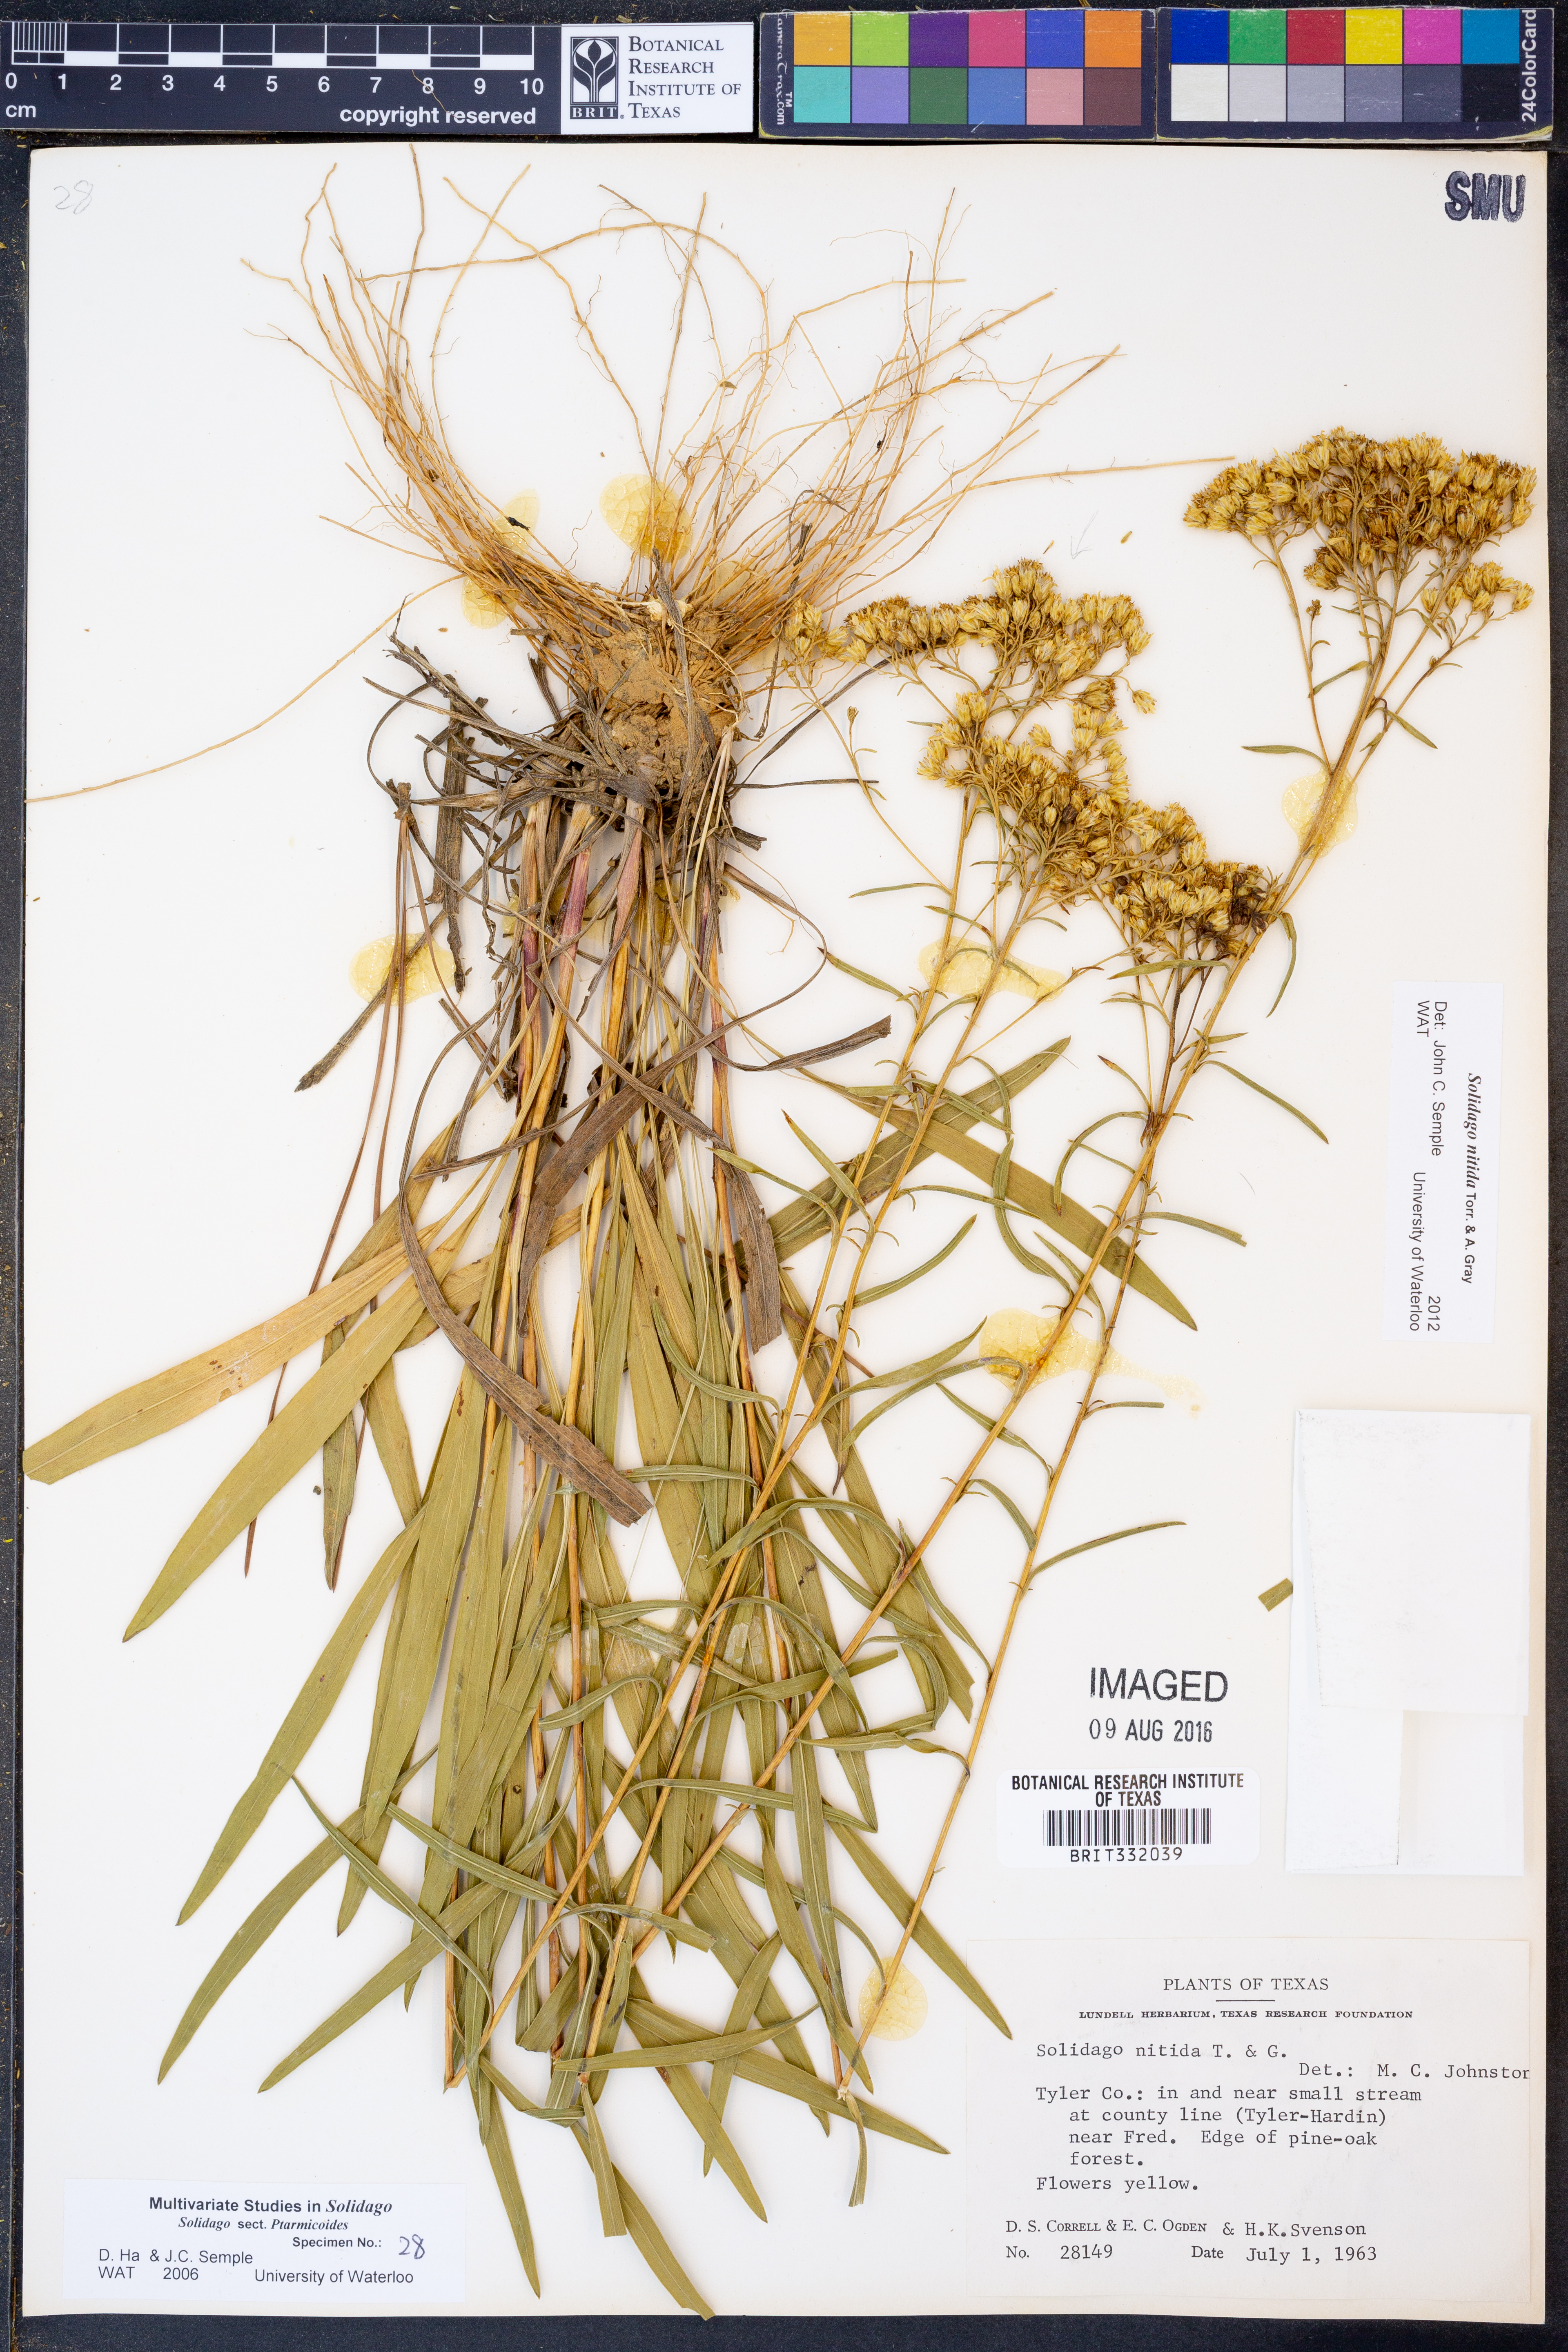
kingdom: Plantae
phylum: Tracheophyta
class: Magnoliopsida
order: Asterales
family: Asteraceae
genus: Solidago
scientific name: Solidago nitida
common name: Shiny goldenrod
